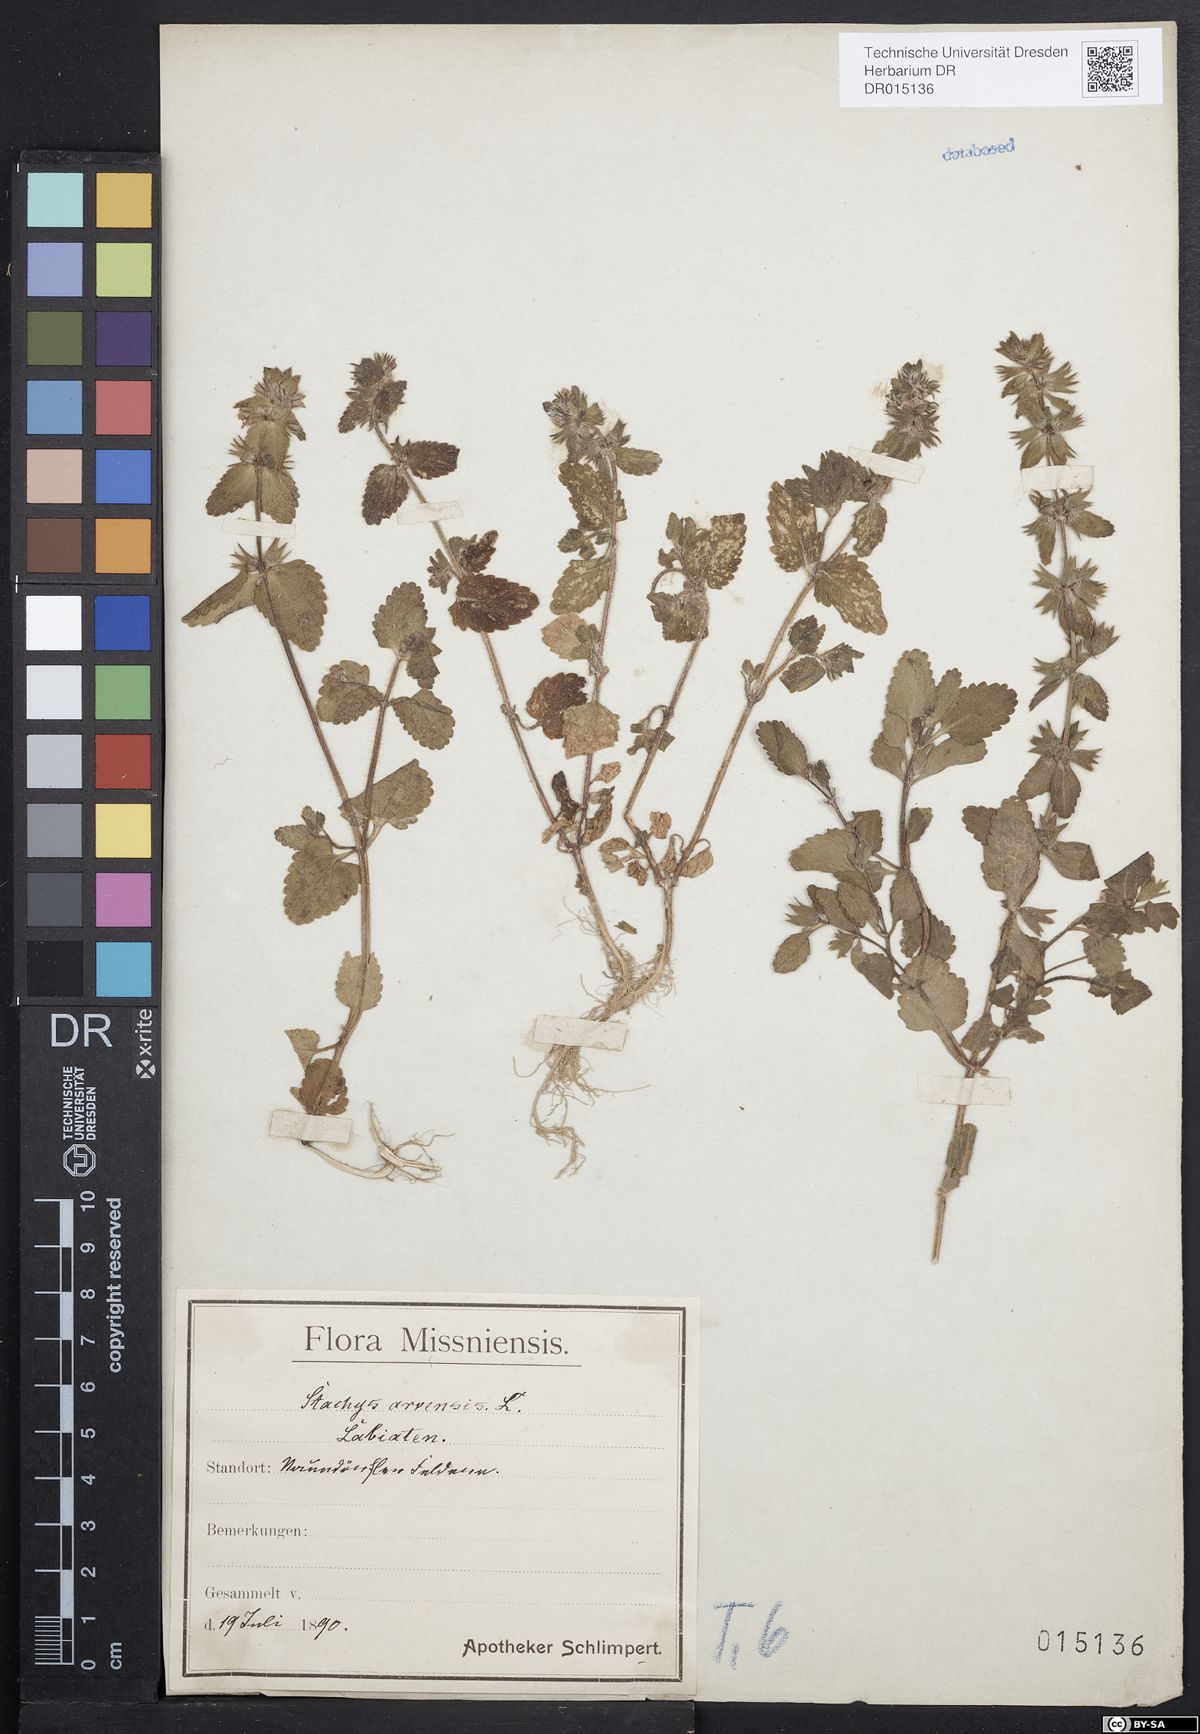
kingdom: Plantae
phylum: Tracheophyta
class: Magnoliopsida
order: Lamiales
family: Lamiaceae
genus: Stachys
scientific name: Stachys arvensis
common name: Field woundwort
